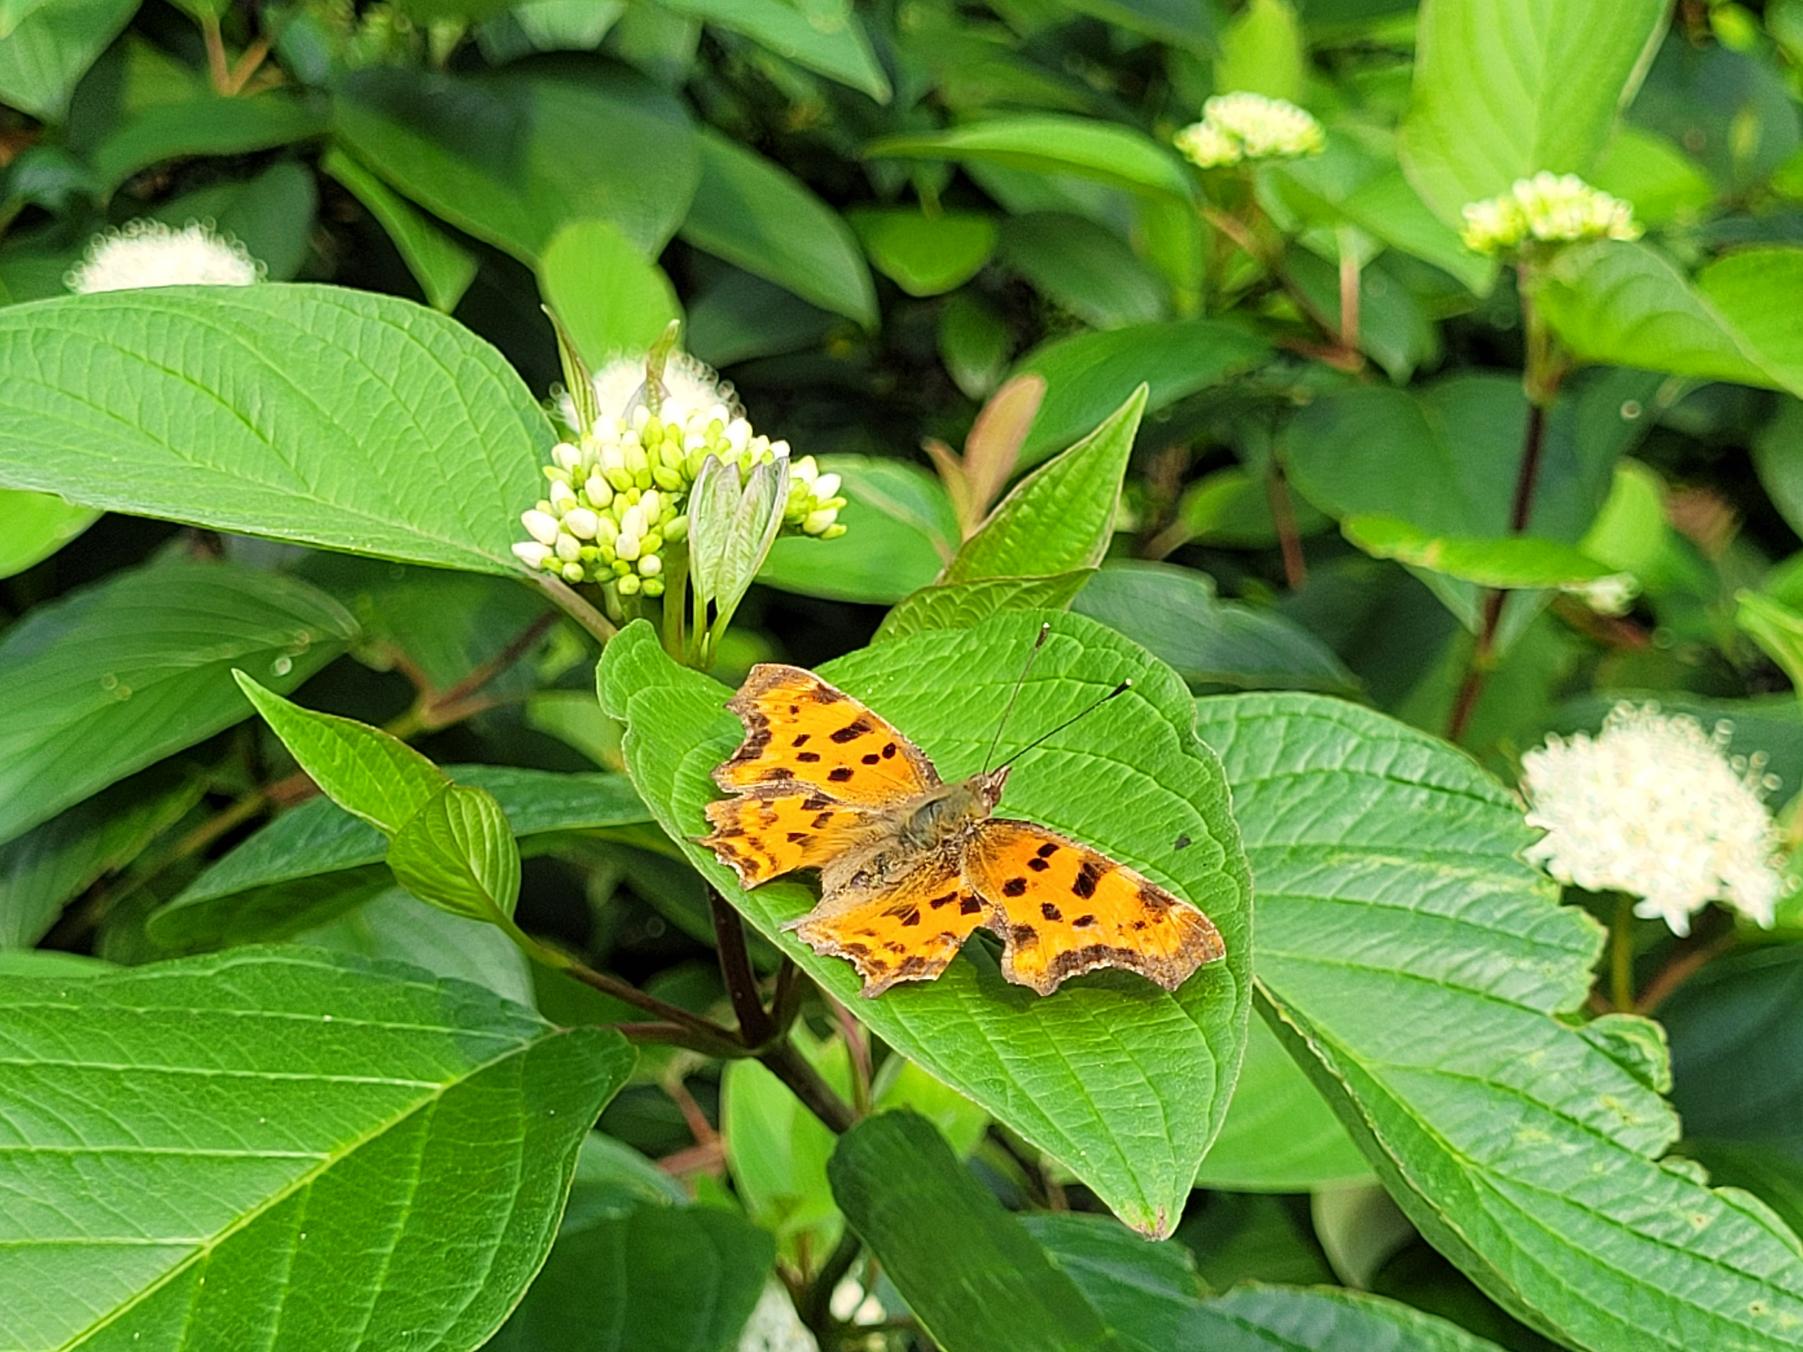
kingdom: Animalia
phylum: Arthropoda
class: Insecta
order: Lepidoptera
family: Nymphalidae
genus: Polygonia
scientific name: Polygonia c-album
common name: Det hvide C
